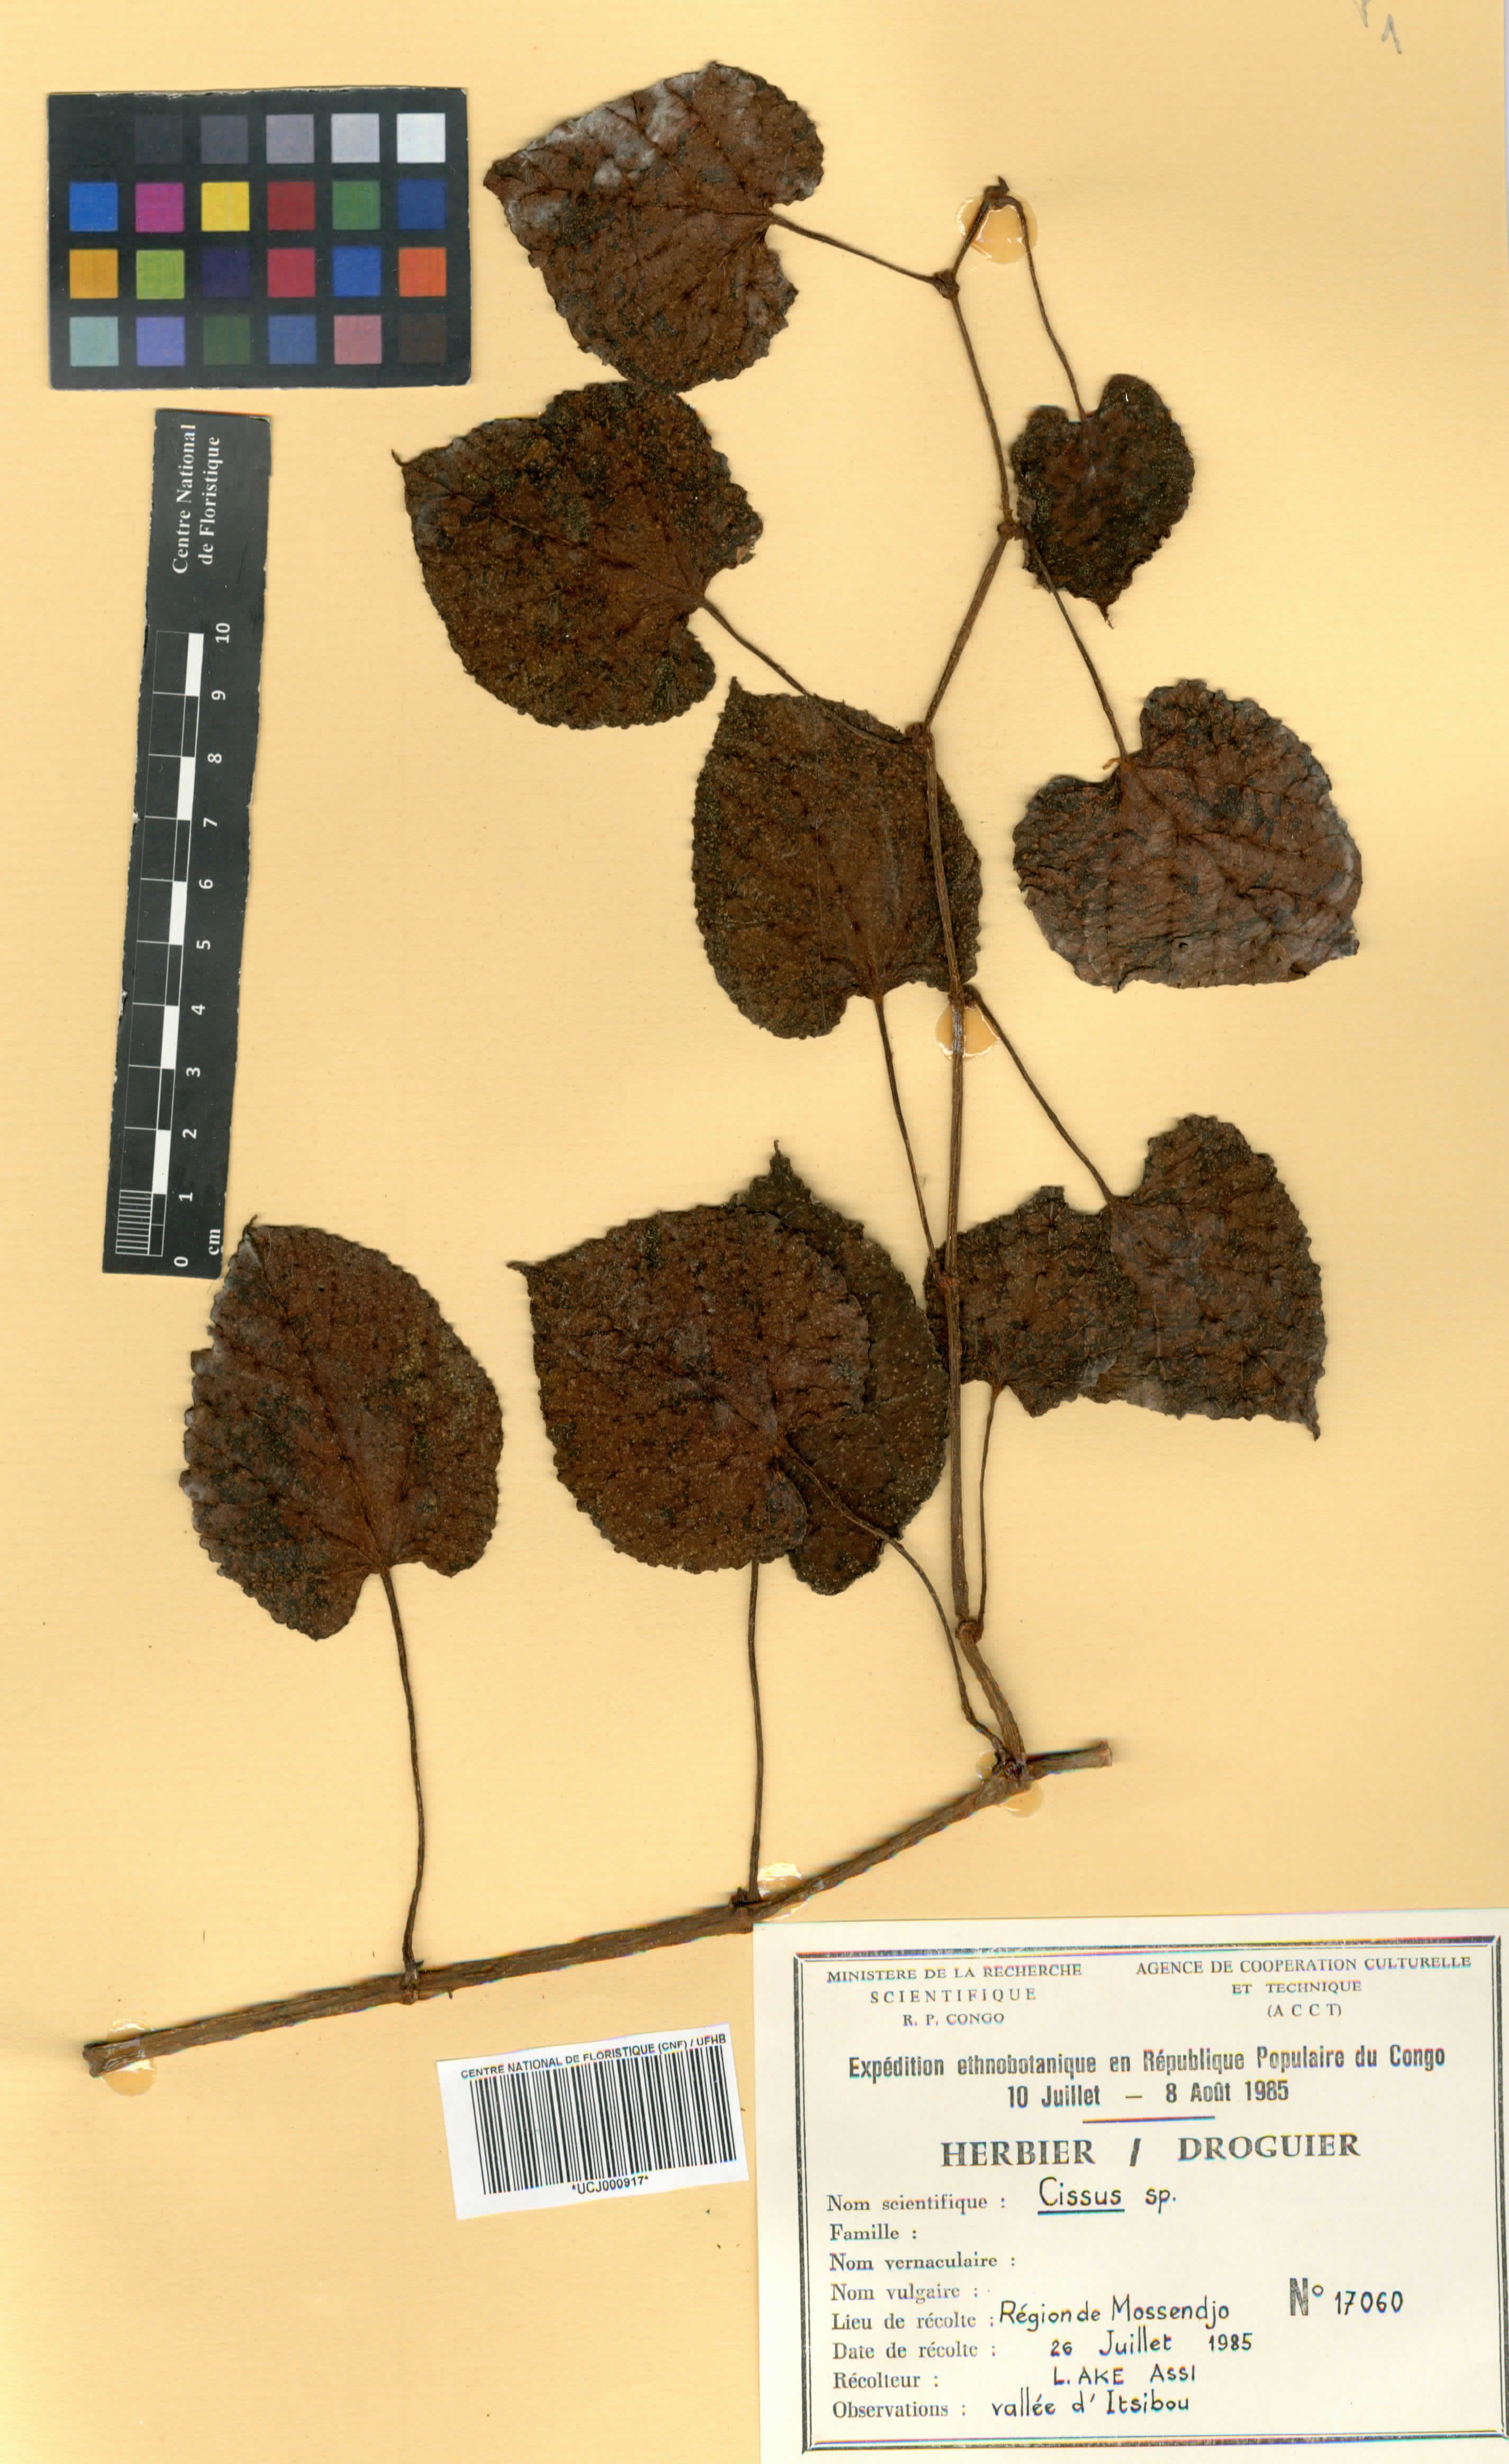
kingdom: Plantae
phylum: Tracheophyta
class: Magnoliopsida
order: Vitales
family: Vitaceae
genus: Cissus
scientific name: Cissus
